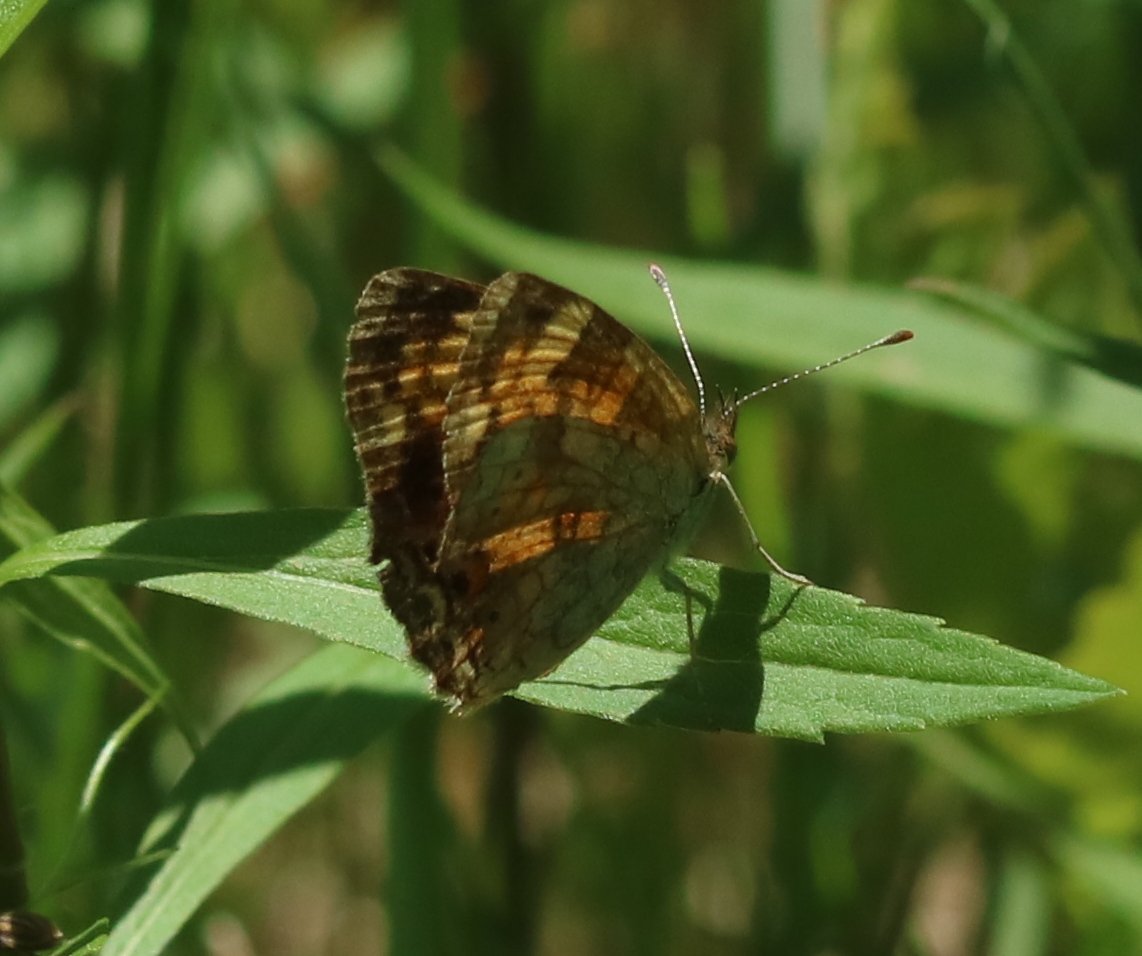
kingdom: Animalia
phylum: Arthropoda
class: Insecta
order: Lepidoptera
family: Nymphalidae
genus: Phyciodes
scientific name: Phyciodes tharos
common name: Northern Crescent
